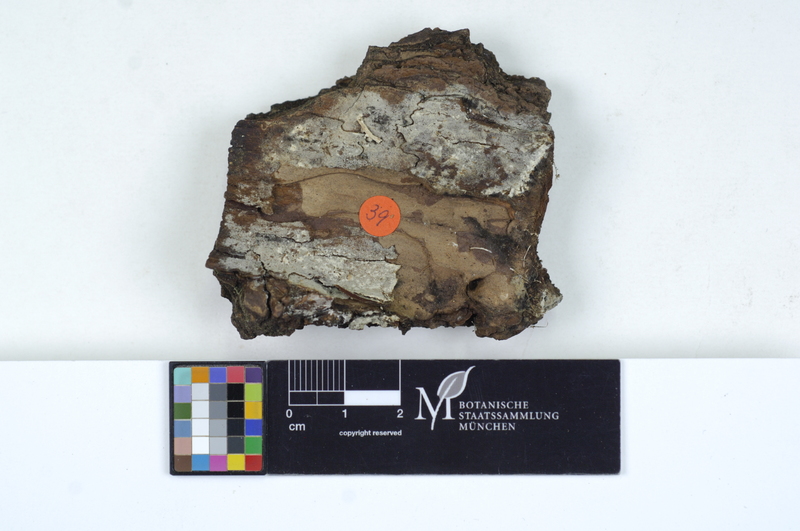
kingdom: Fungi
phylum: Basidiomycota
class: Agaricomycetes
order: Cantharellales
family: Botryobasidiaceae
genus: Botryobasidium
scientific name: Botryobasidium subcoronatum
